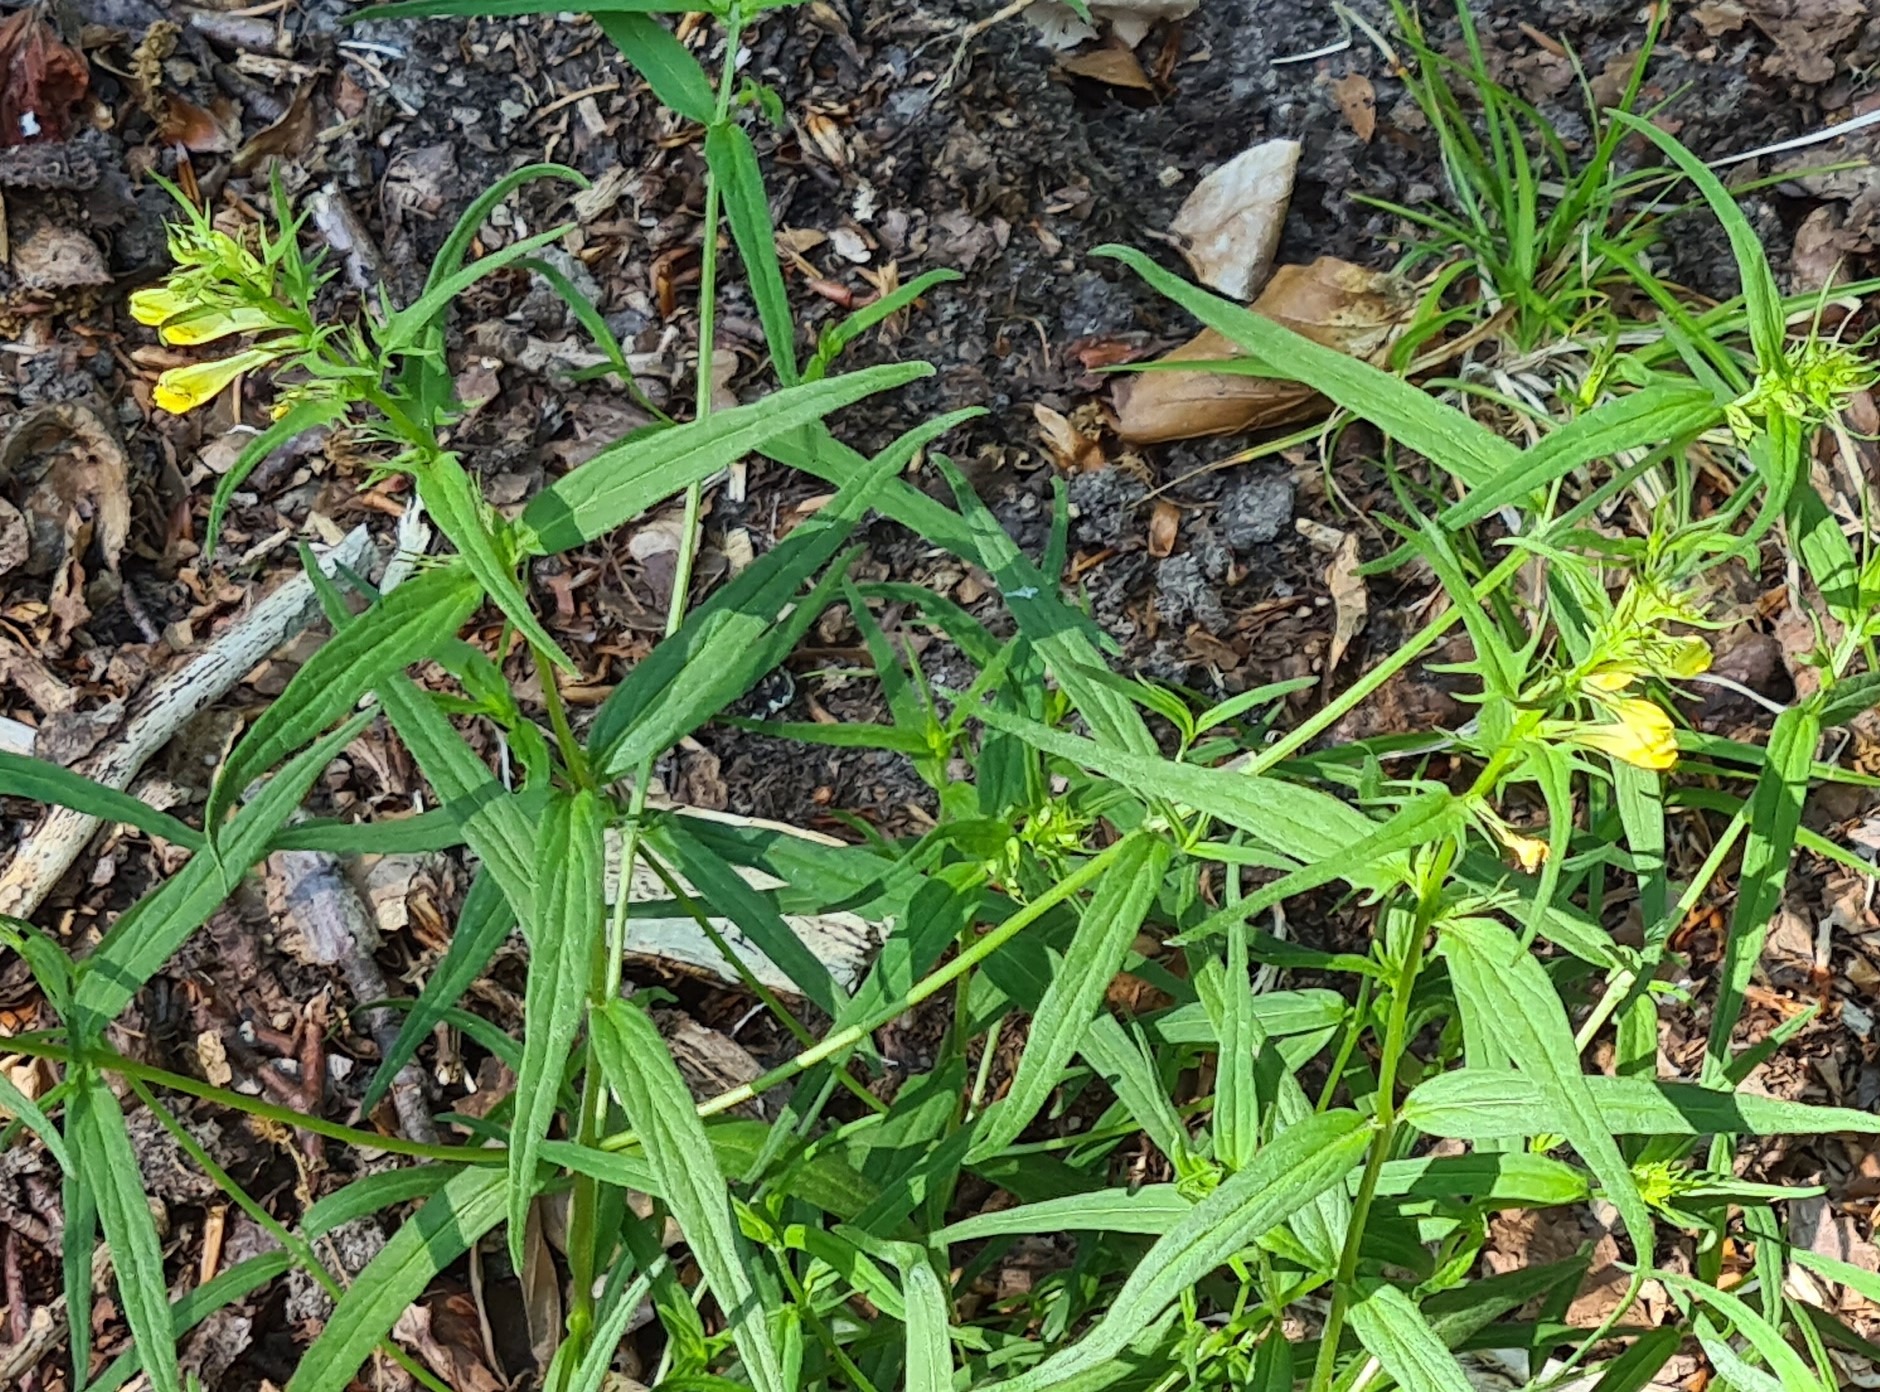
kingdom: Plantae
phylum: Tracheophyta
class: Magnoliopsida
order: Lamiales
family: Orobanchaceae
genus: Melampyrum
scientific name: Melampyrum pratense
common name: Almindelig kohvede
